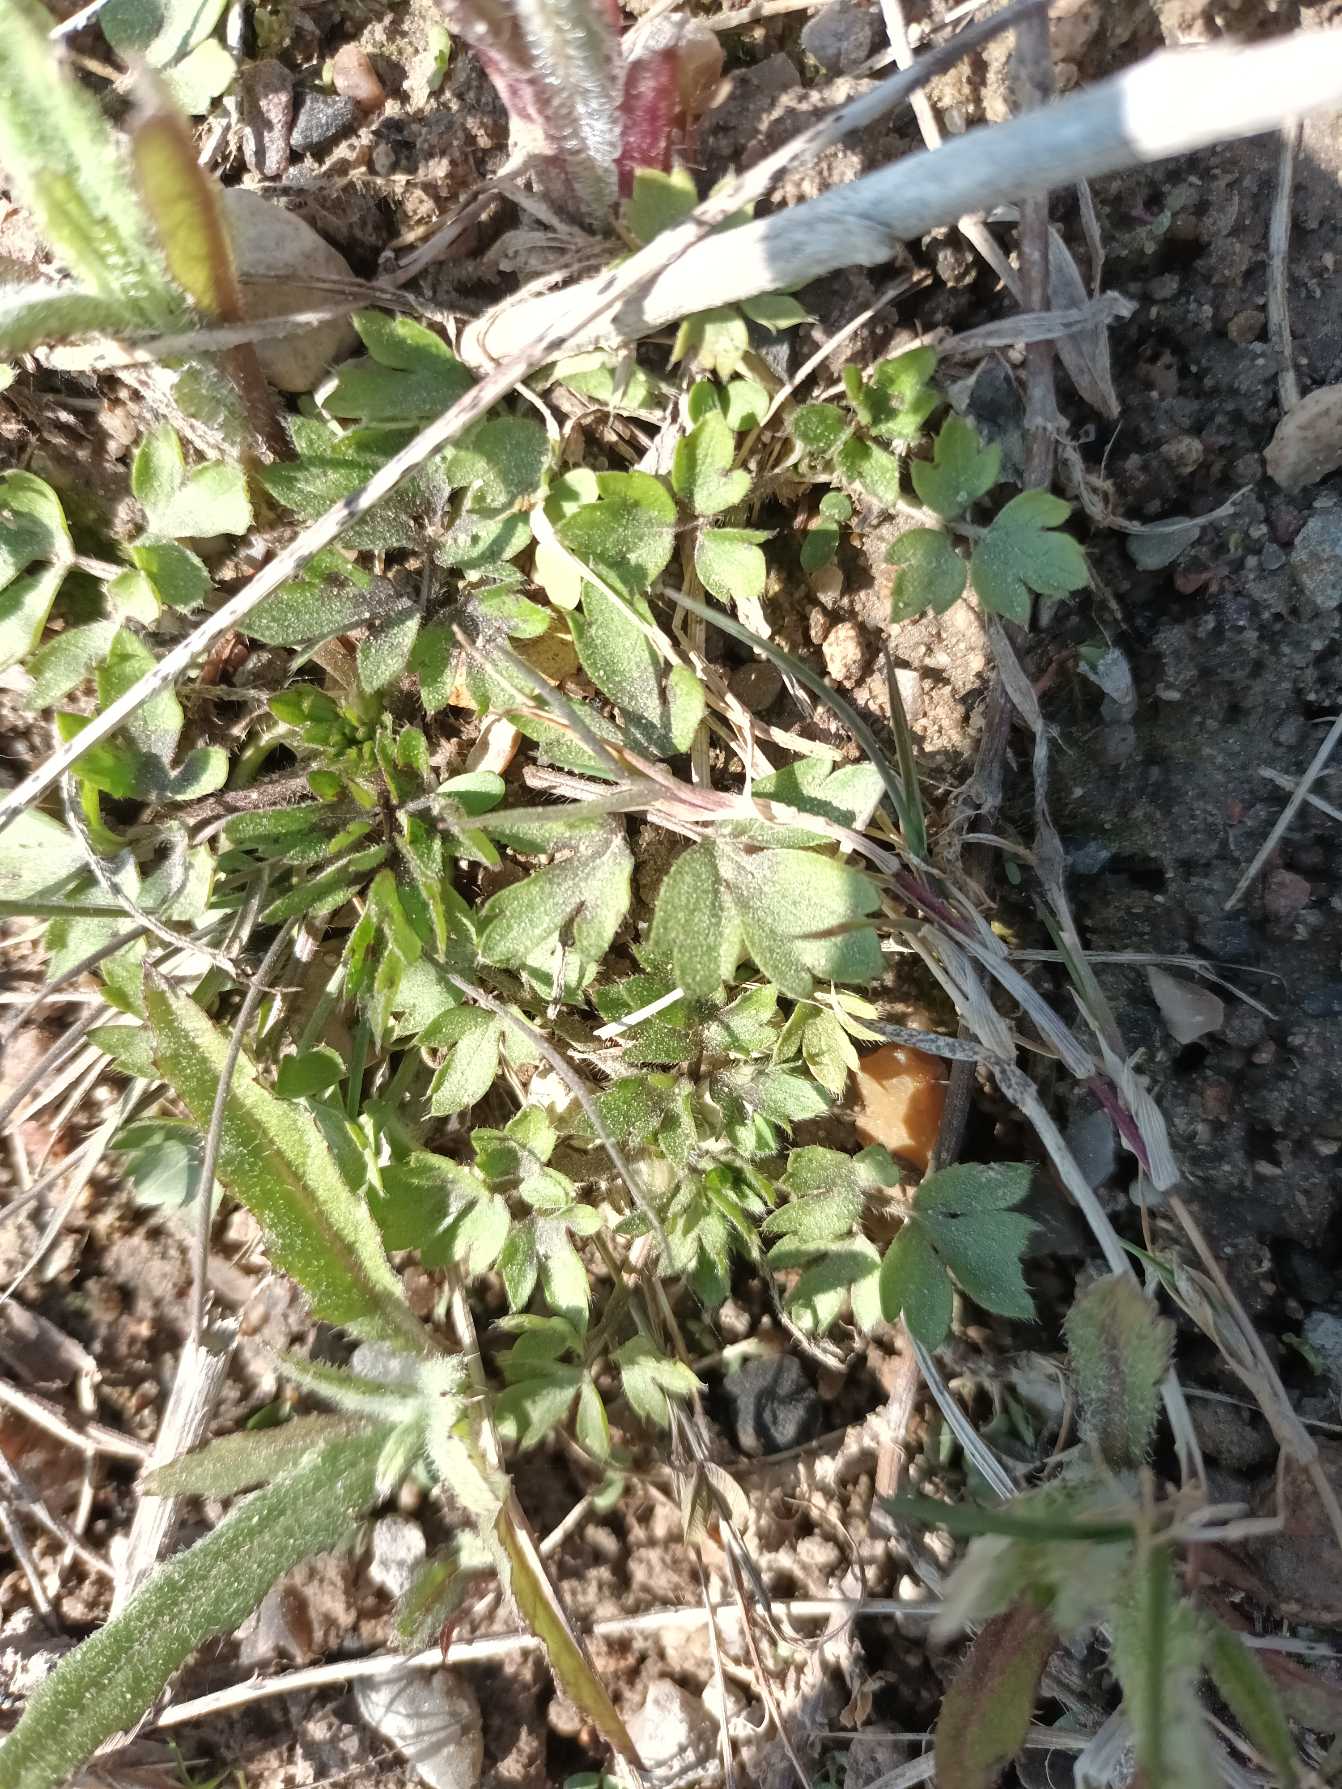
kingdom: Plantae
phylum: Tracheophyta
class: Magnoliopsida
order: Ranunculales
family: Ranunculaceae
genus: Ranunculus
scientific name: Ranunculus repens
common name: Lav ranunkel
